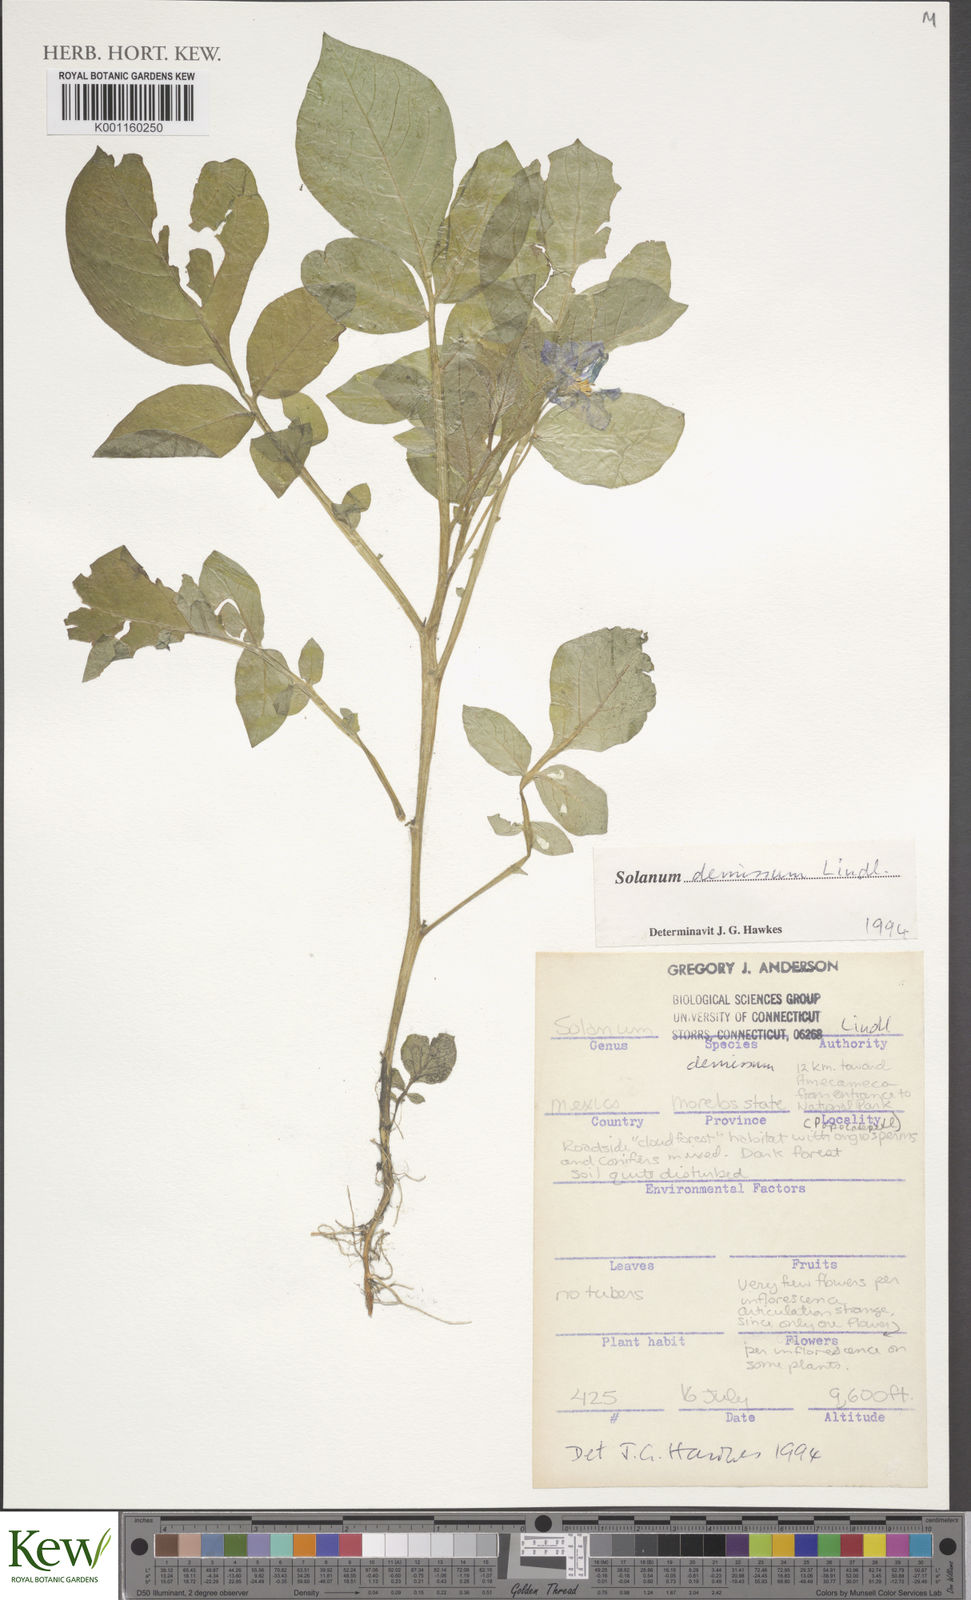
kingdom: Plantae
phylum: Tracheophyta
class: Magnoliopsida
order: Solanales
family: Solanaceae
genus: Solanum
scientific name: Solanum demissum
